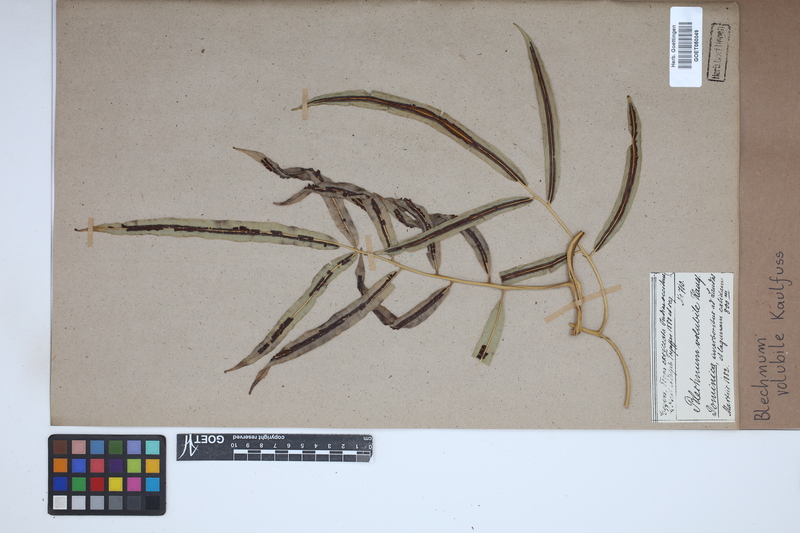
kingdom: Plantae
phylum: Tracheophyta
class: Polypodiopsida
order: Polypodiales
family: Blechnaceae
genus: Salpichlaena
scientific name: Salpichlaena volubilis
